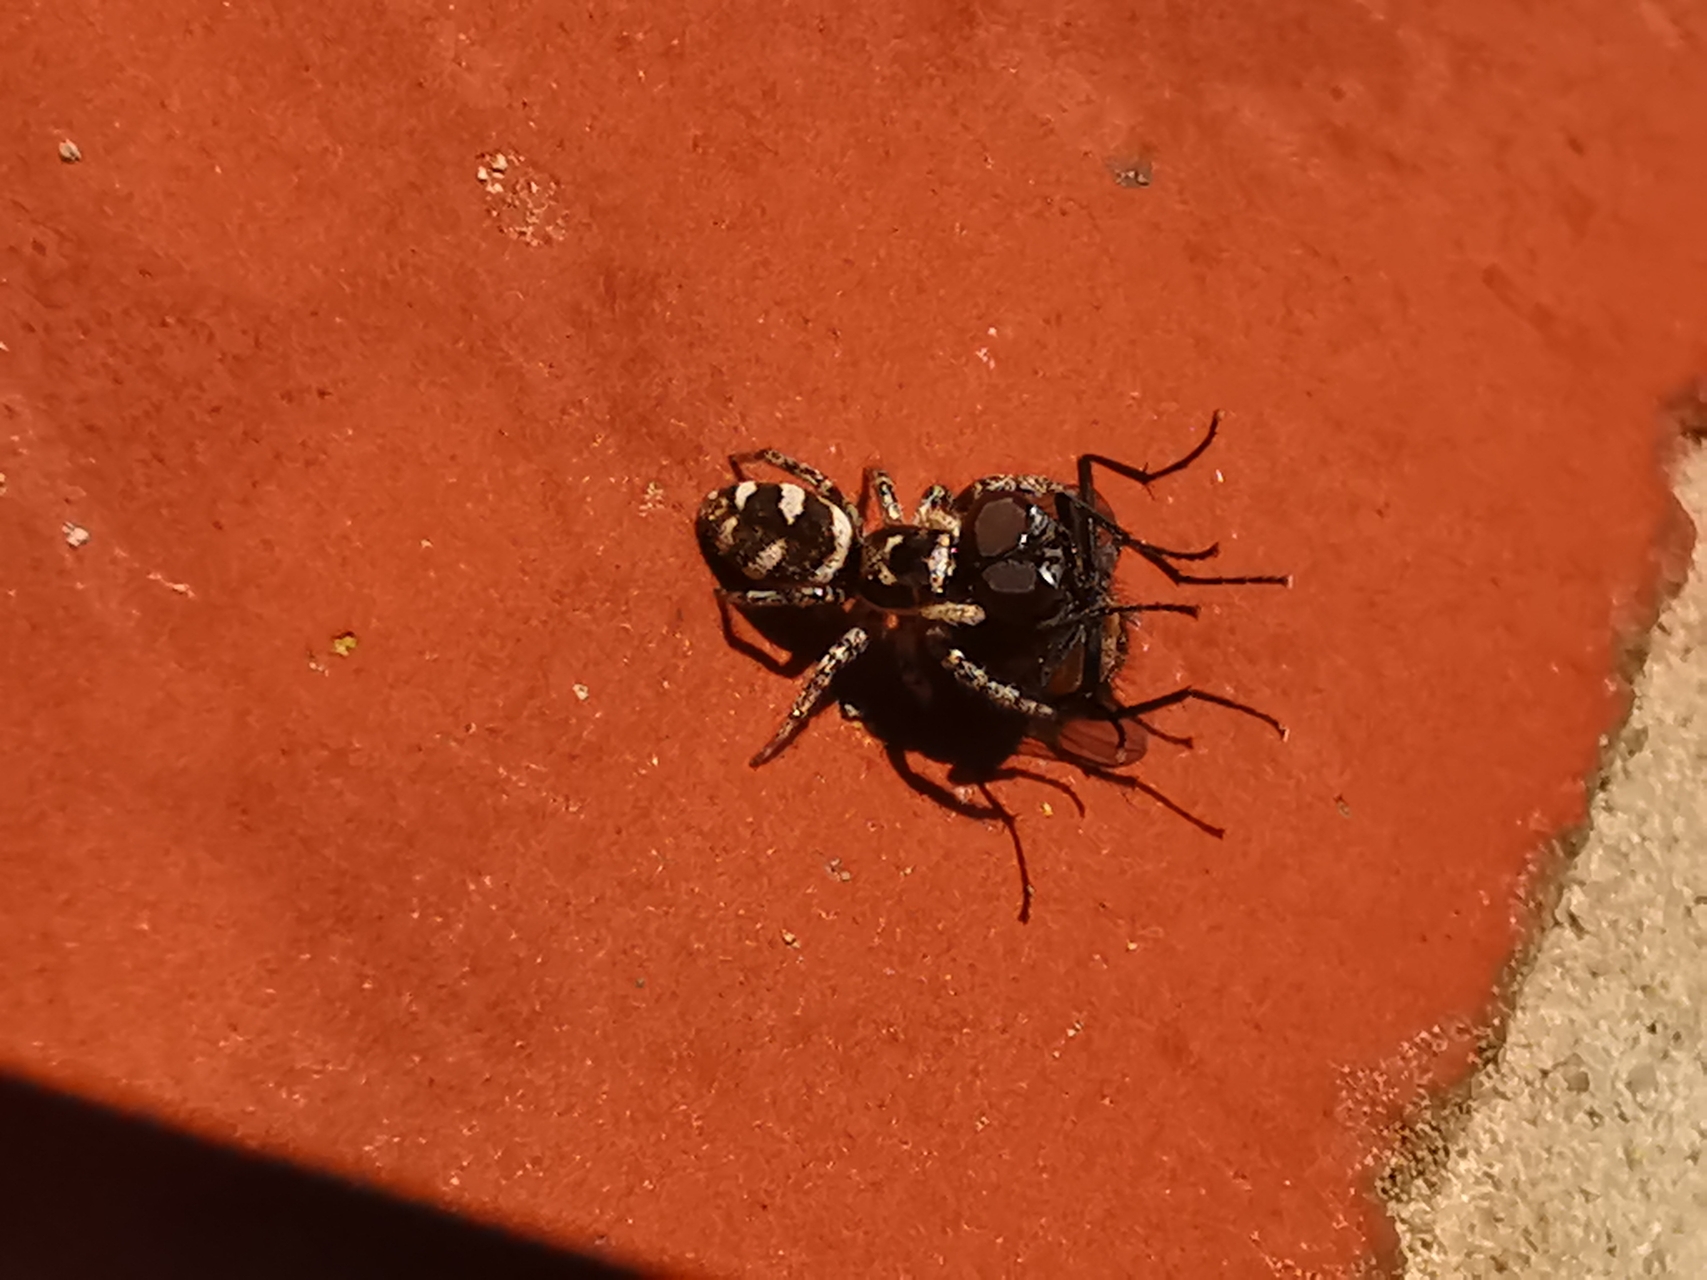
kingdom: Animalia
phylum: Arthropoda
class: Arachnida
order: Araneae
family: Salticidae
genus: Salticus
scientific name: Salticus scenicus
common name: Almindelig zebraedderkop
